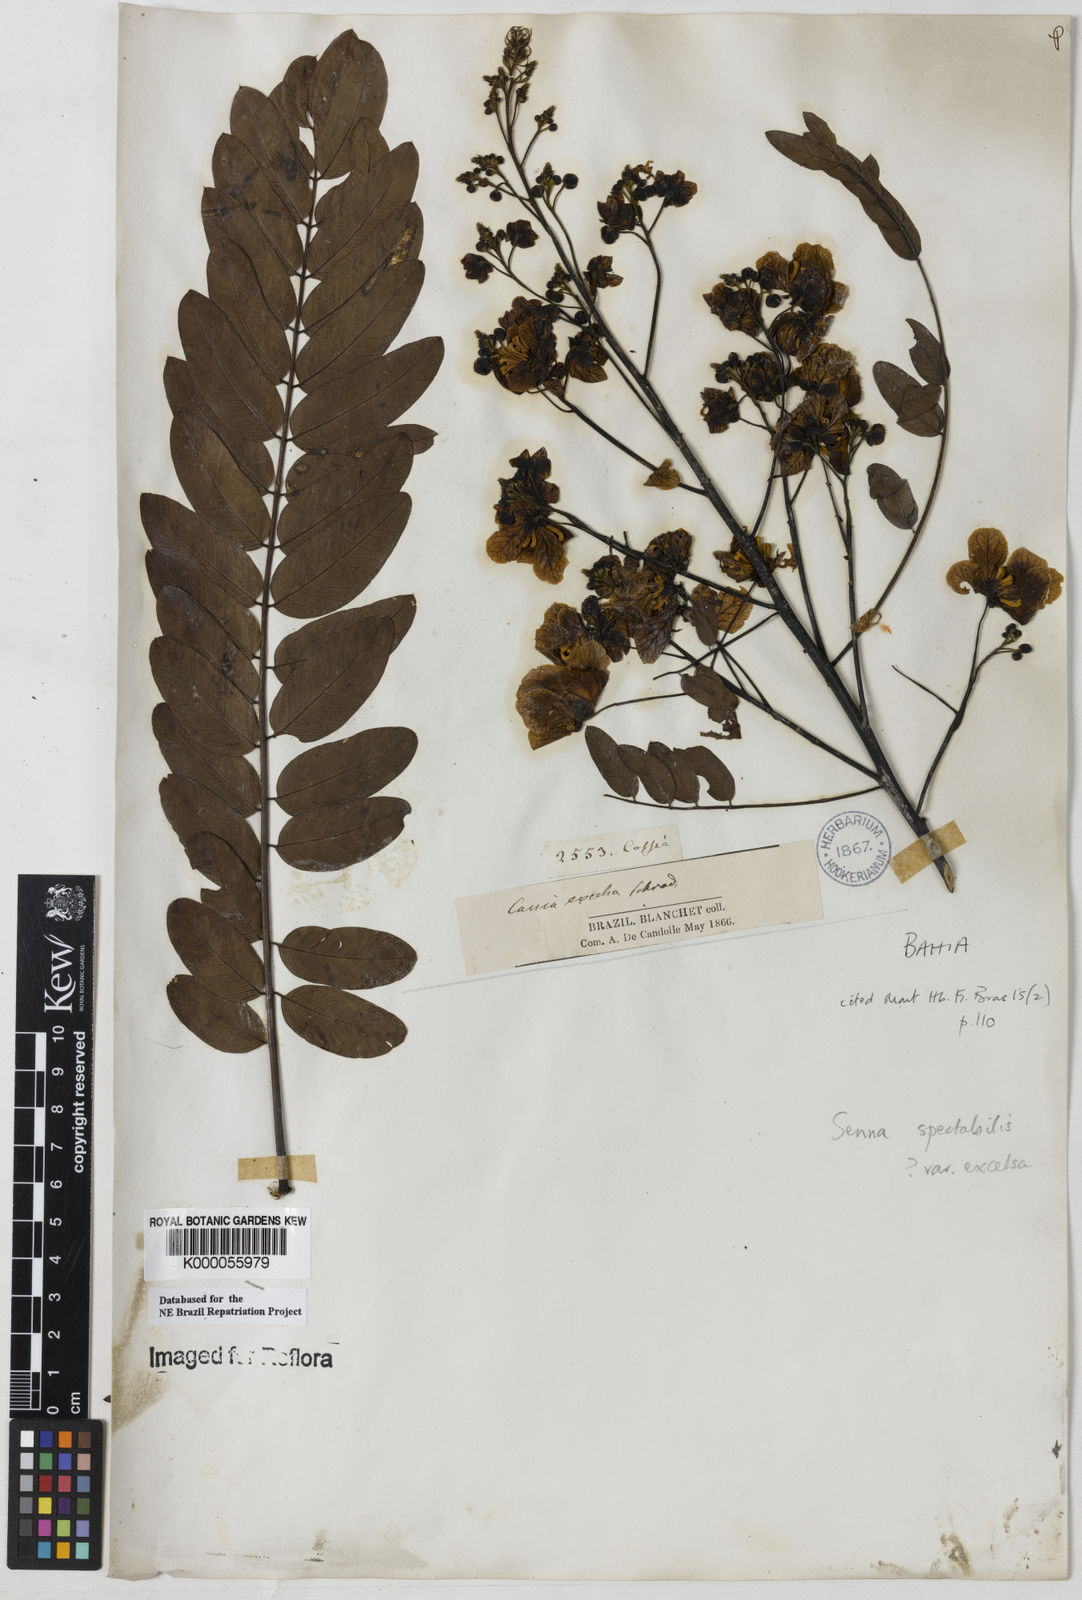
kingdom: Plantae
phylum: Tracheophyta
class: Magnoliopsida
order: Fabales
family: Fabaceae
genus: Senna
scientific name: Senna spectabilis
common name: Casia amarilla
